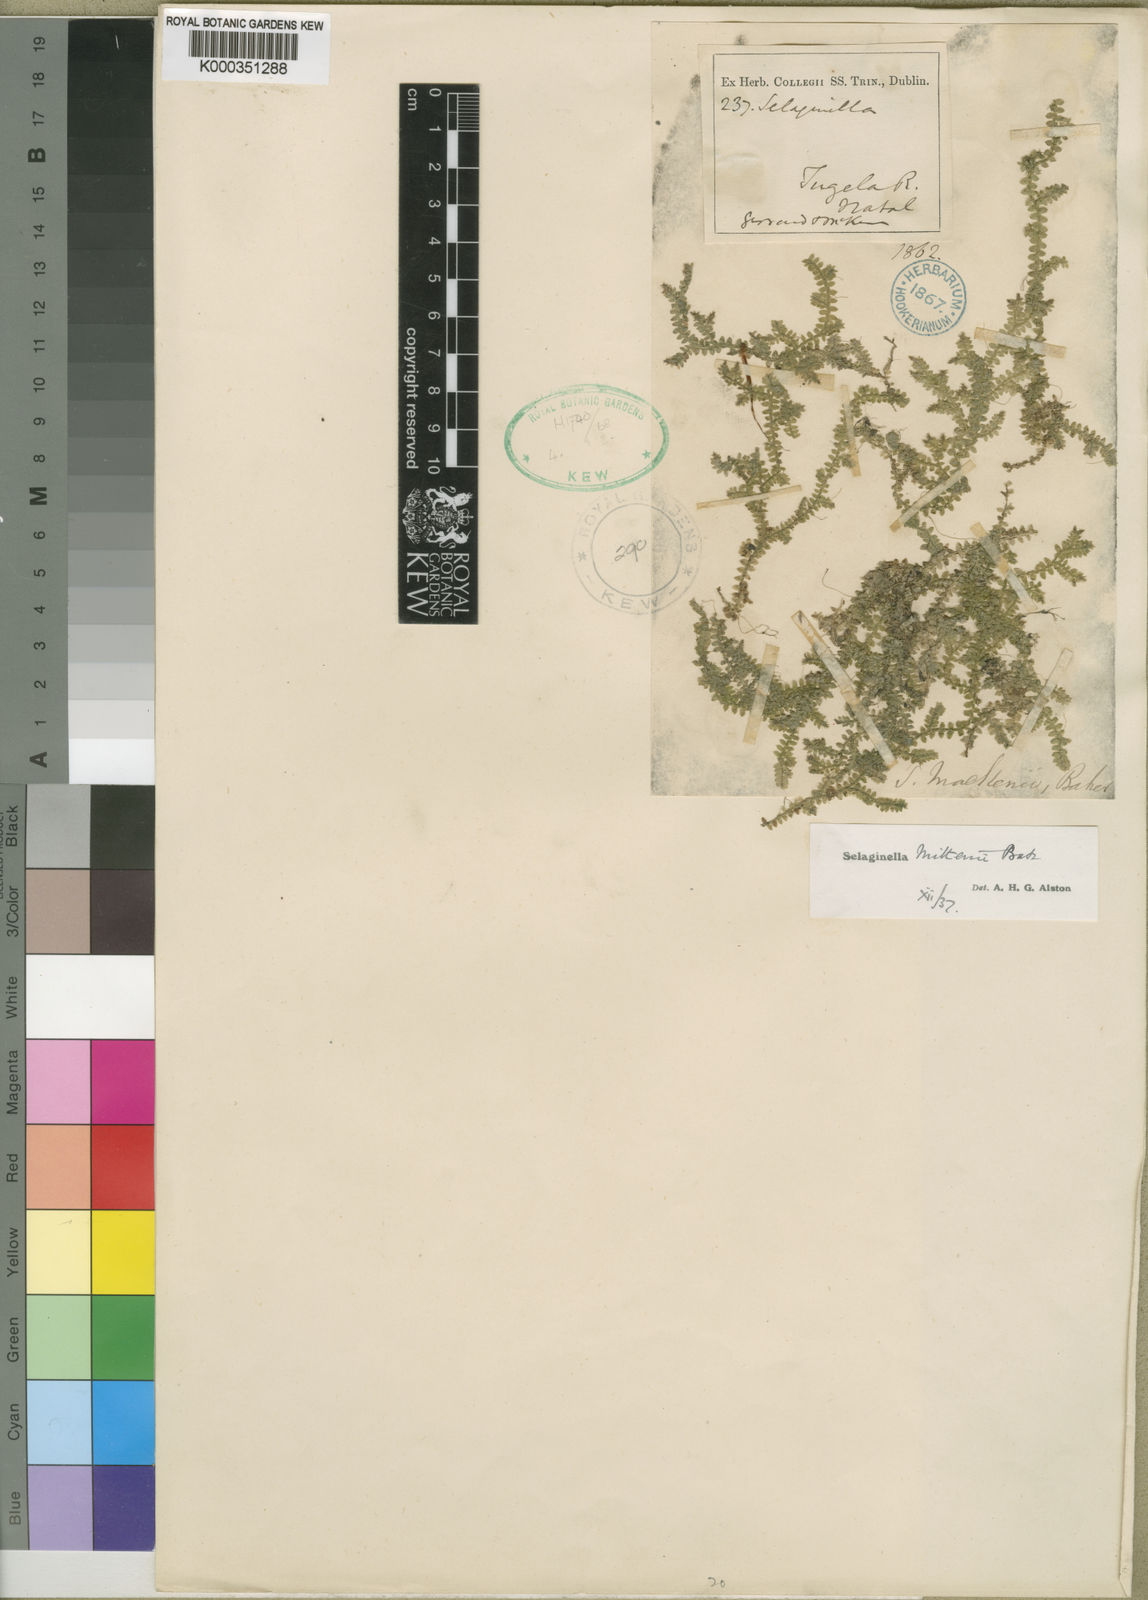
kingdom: Plantae
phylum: Tracheophyta
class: Lycopodiopsida
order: Selaginellales
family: Selaginellaceae
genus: Selaginella
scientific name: Selaginella mittenii
